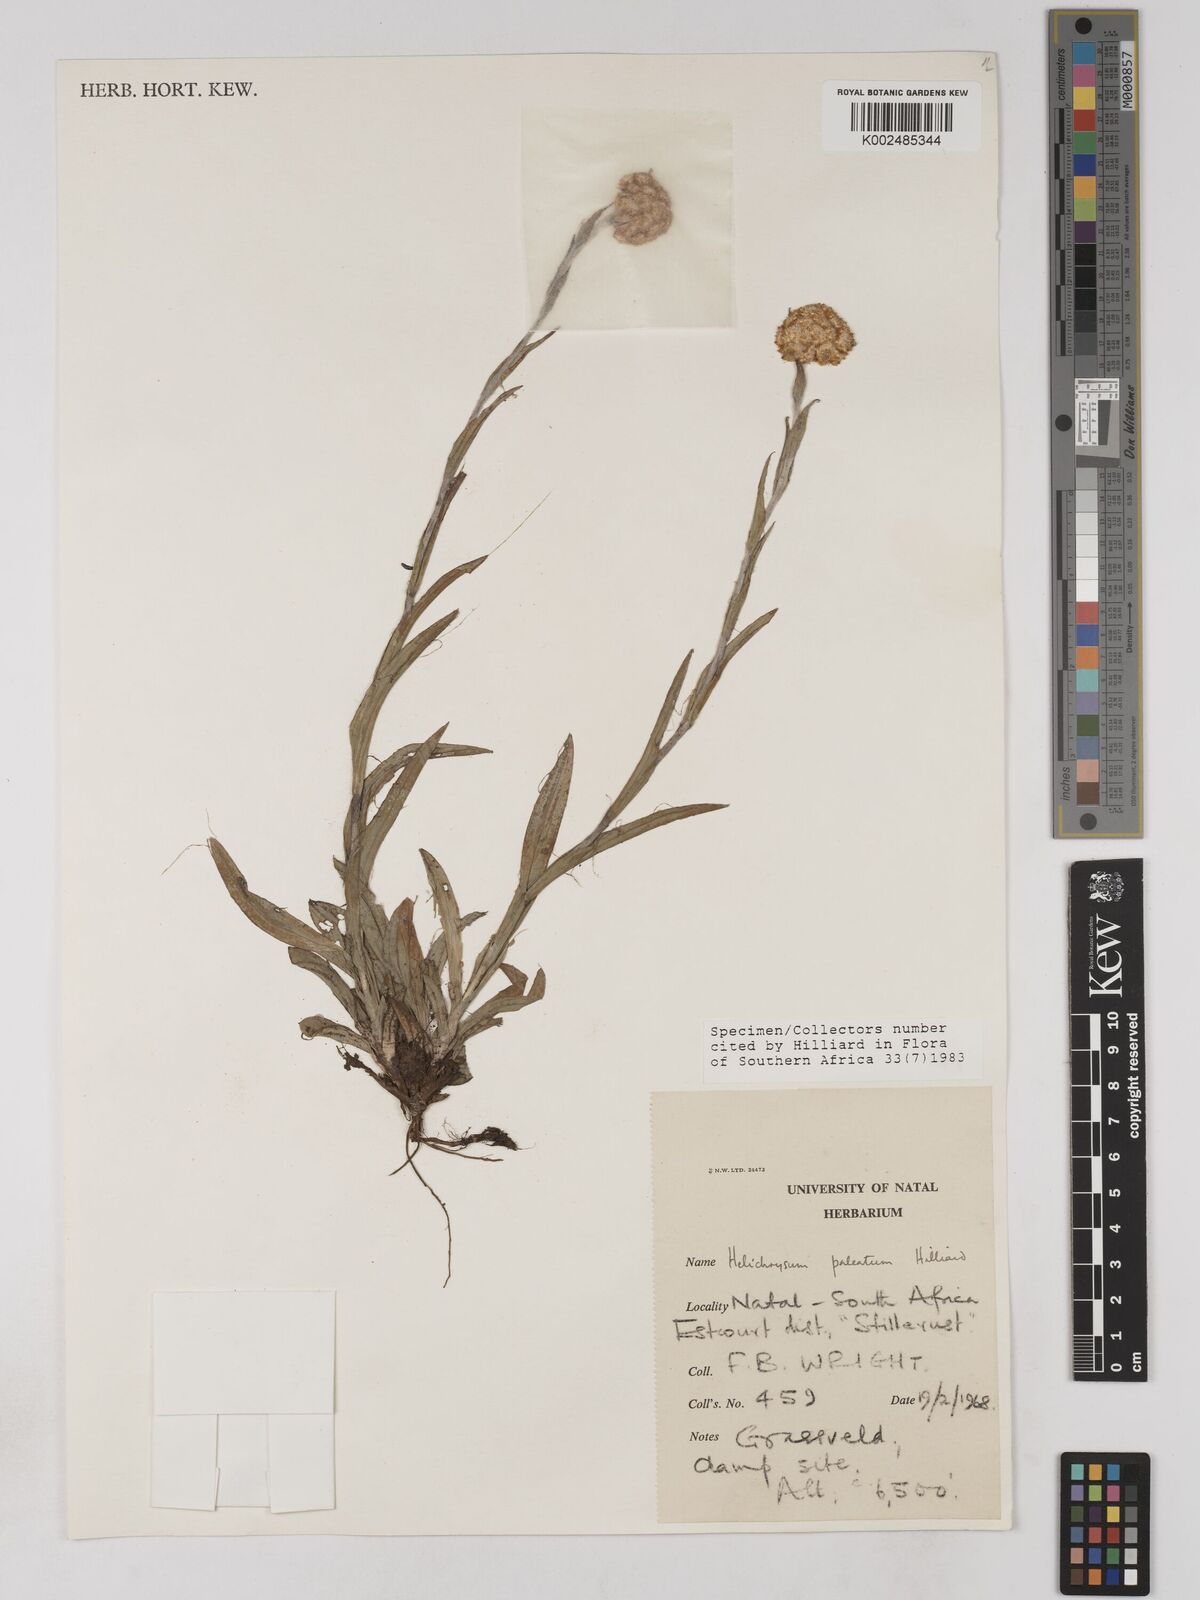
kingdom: Plantae
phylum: Tracheophyta
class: Magnoliopsida
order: Asterales
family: Asteraceae
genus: Helichrysum
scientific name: Helichrysum paleatum
